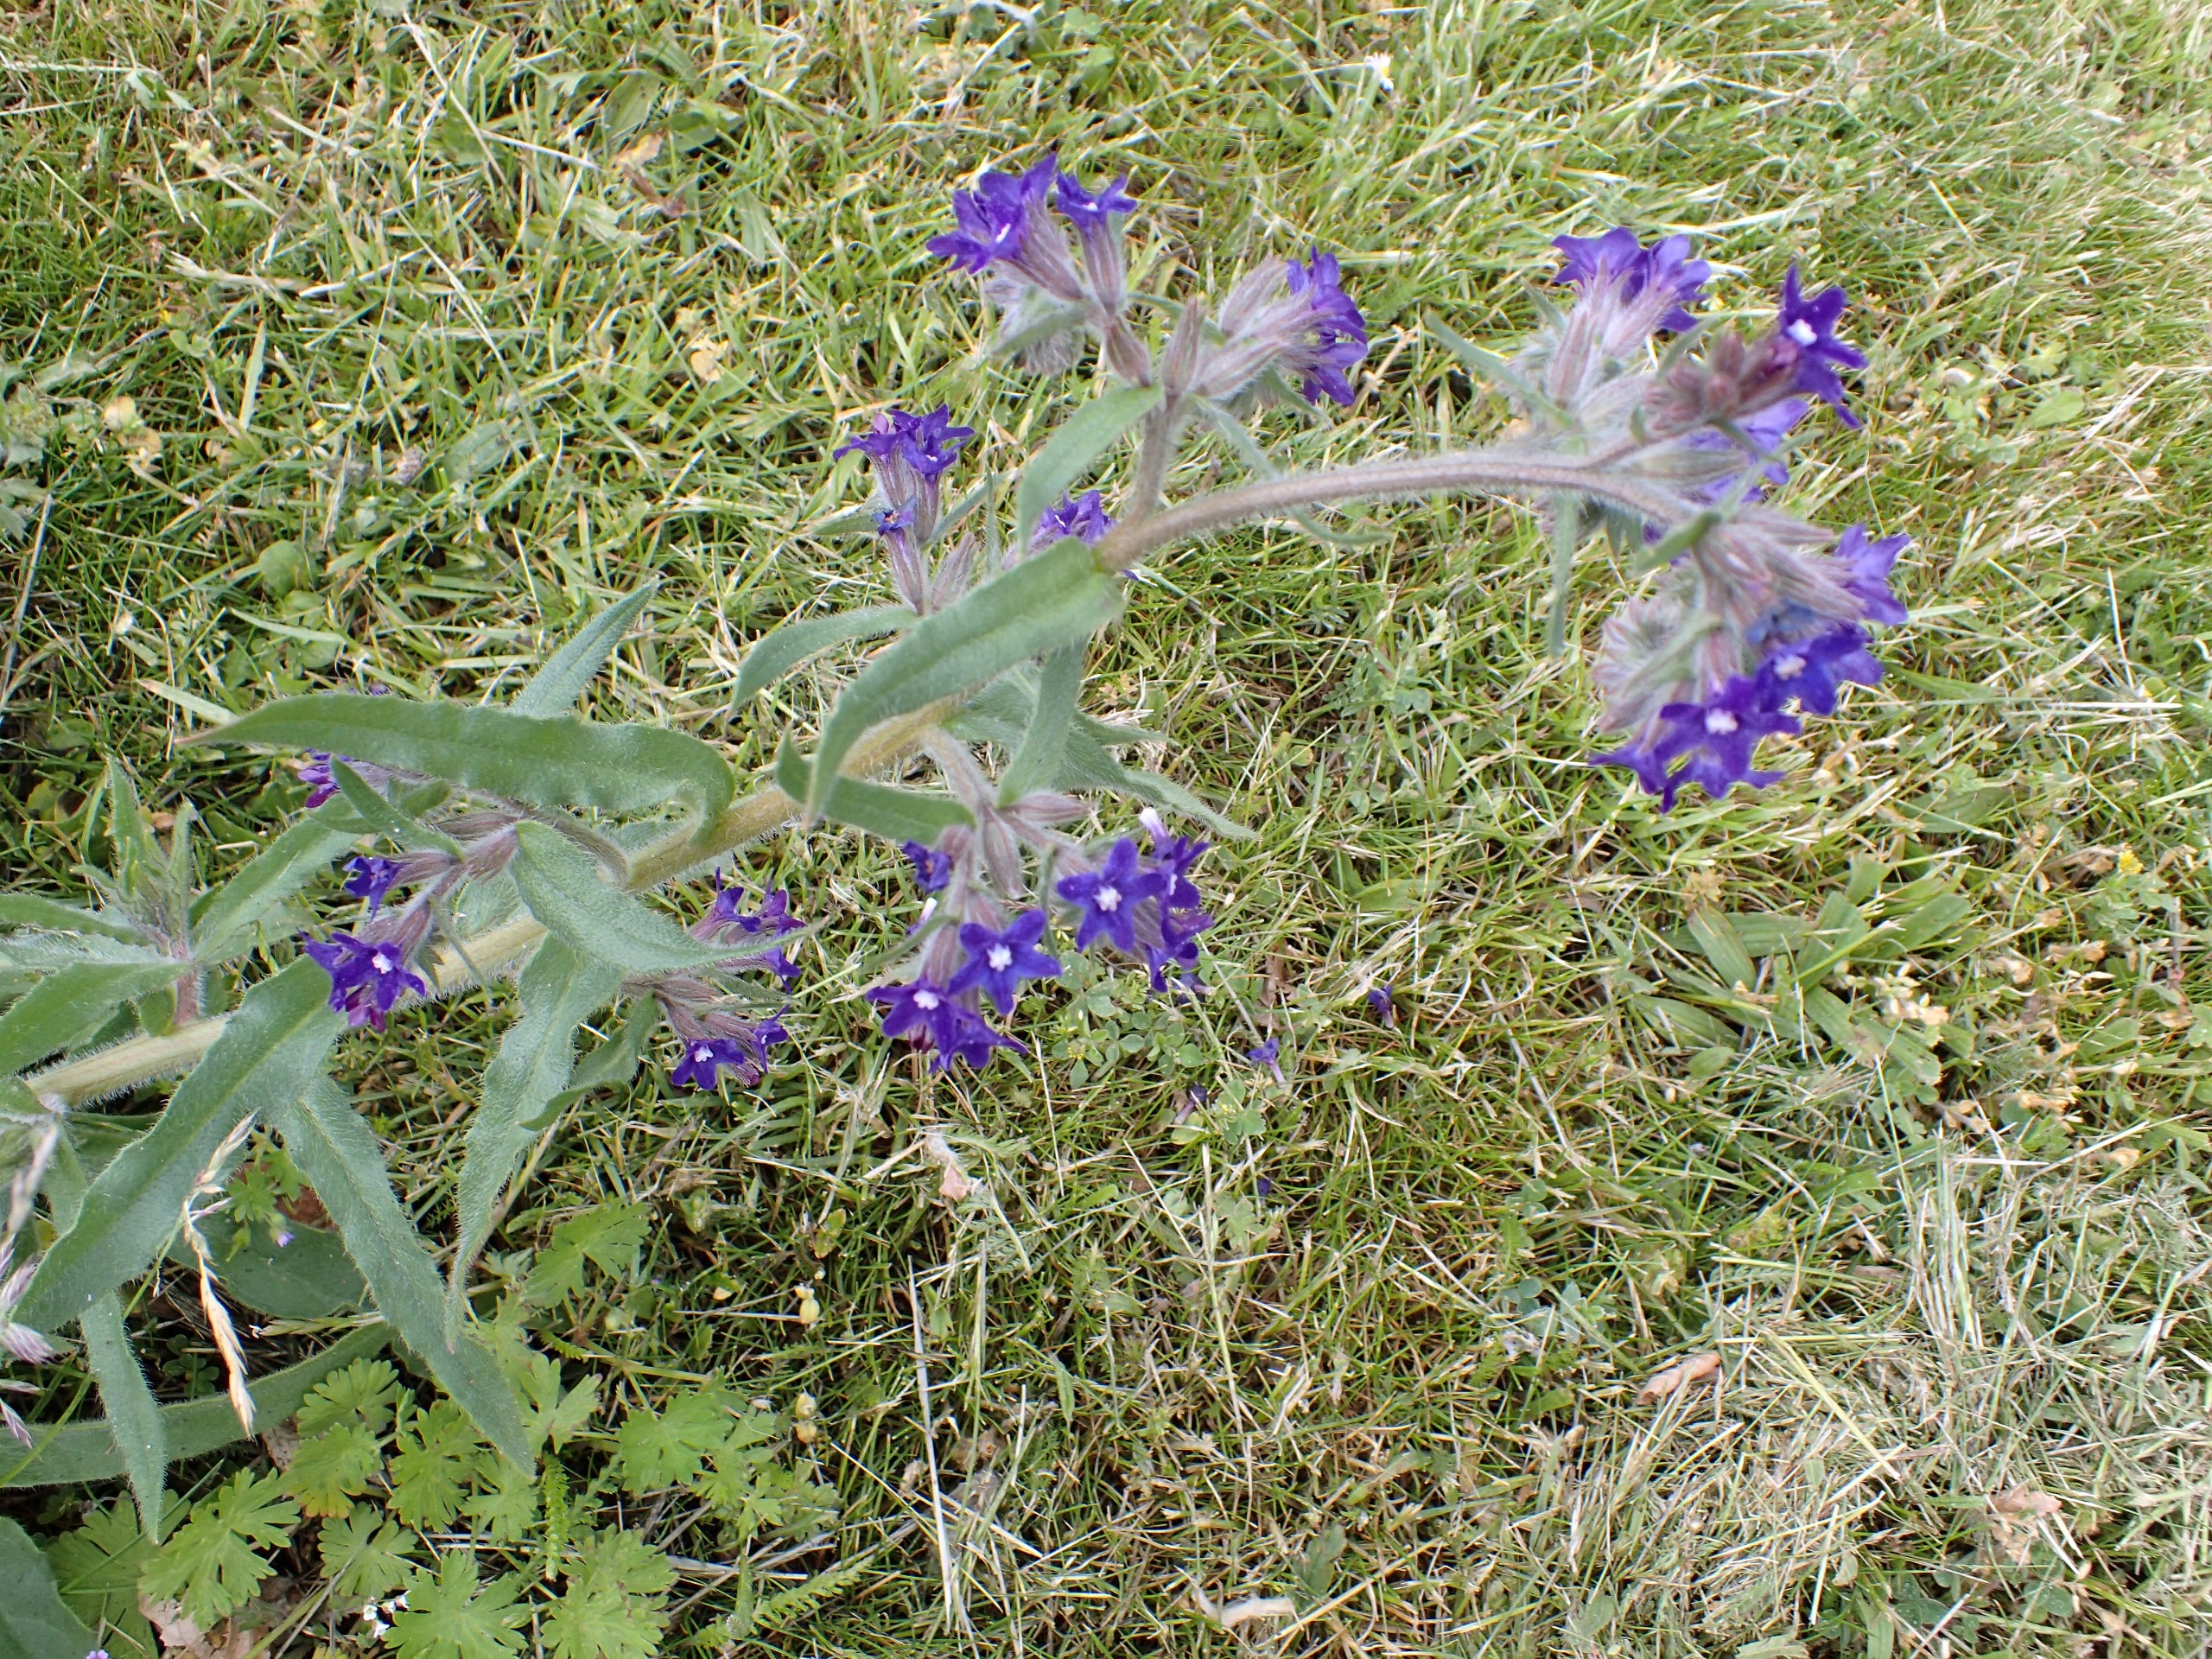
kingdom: Plantae
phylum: Tracheophyta
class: Magnoliopsida
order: Boraginales
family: Boraginaceae
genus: Anchusa
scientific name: Anchusa officinalis
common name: Læge-oksetunge
